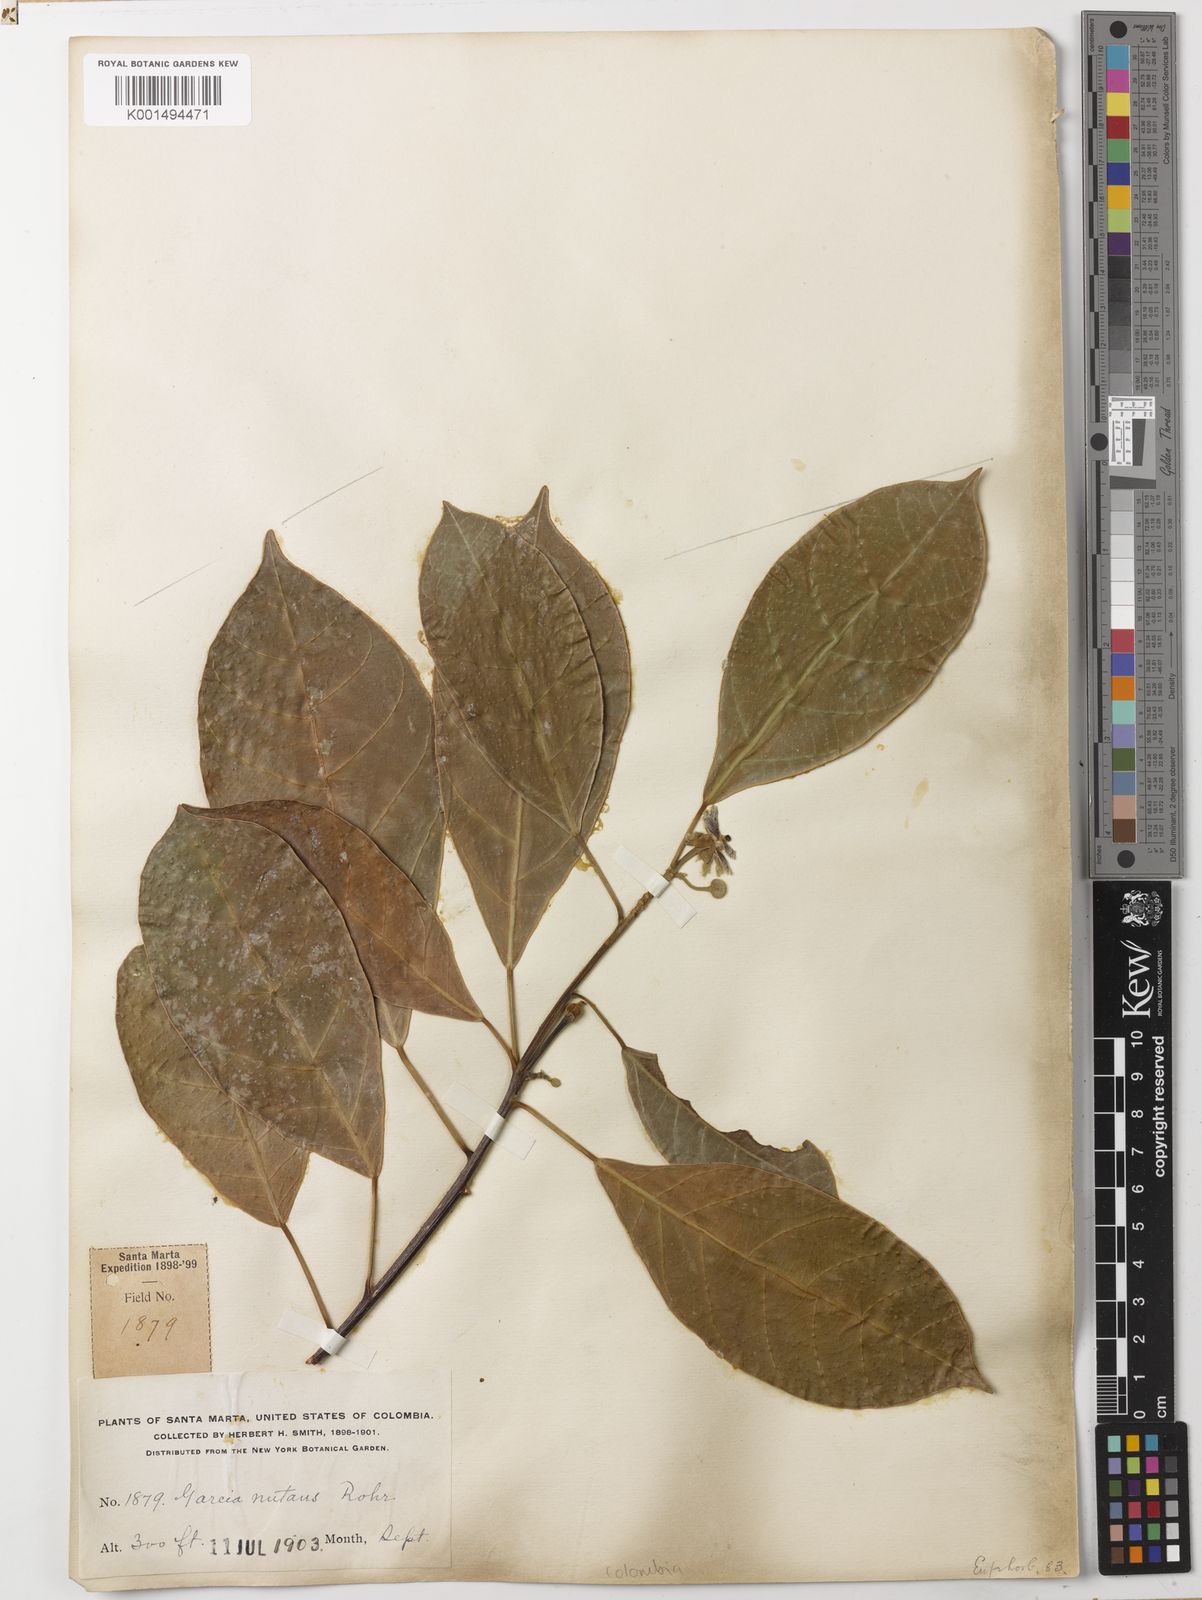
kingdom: Plantae
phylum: Tracheophyta
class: Magnoliopsida
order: Malpighiales
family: Euphorbiaceae
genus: Garcia
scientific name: Garcia nutans
